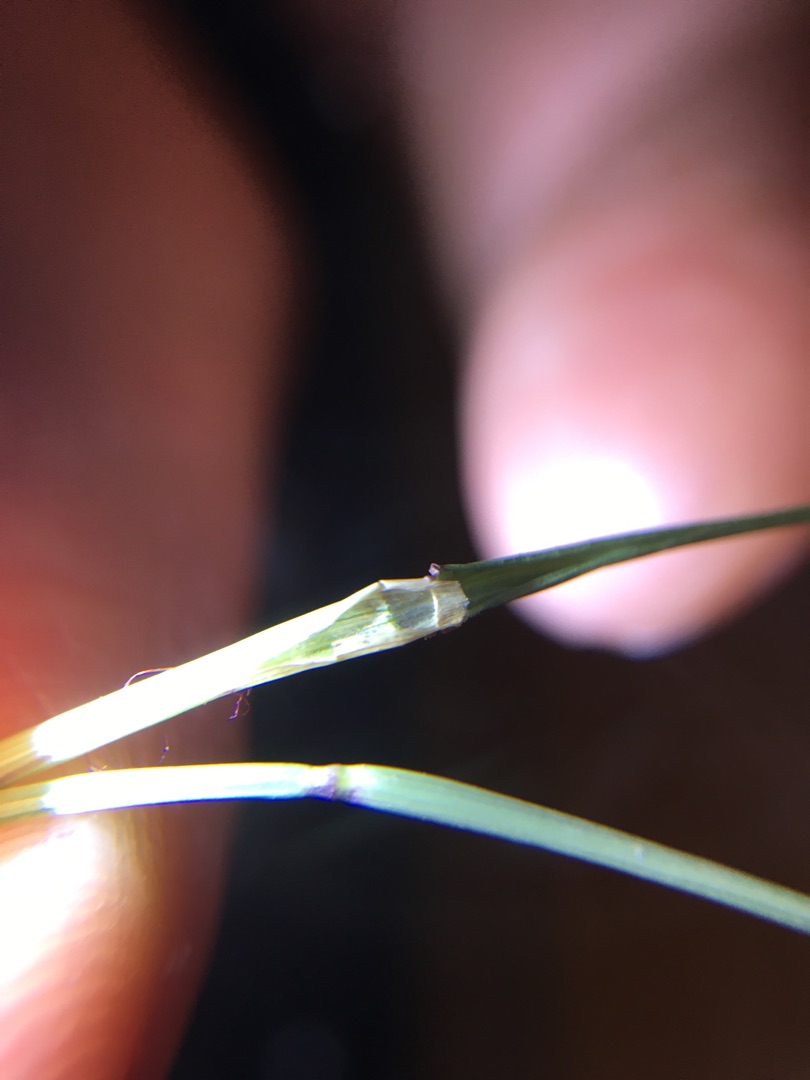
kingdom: Plantae
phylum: Tracheophyta
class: Liliopsida
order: Poales
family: Poaceae
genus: Agrostis
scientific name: Agrostis capillaris
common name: Almindelig hvene
